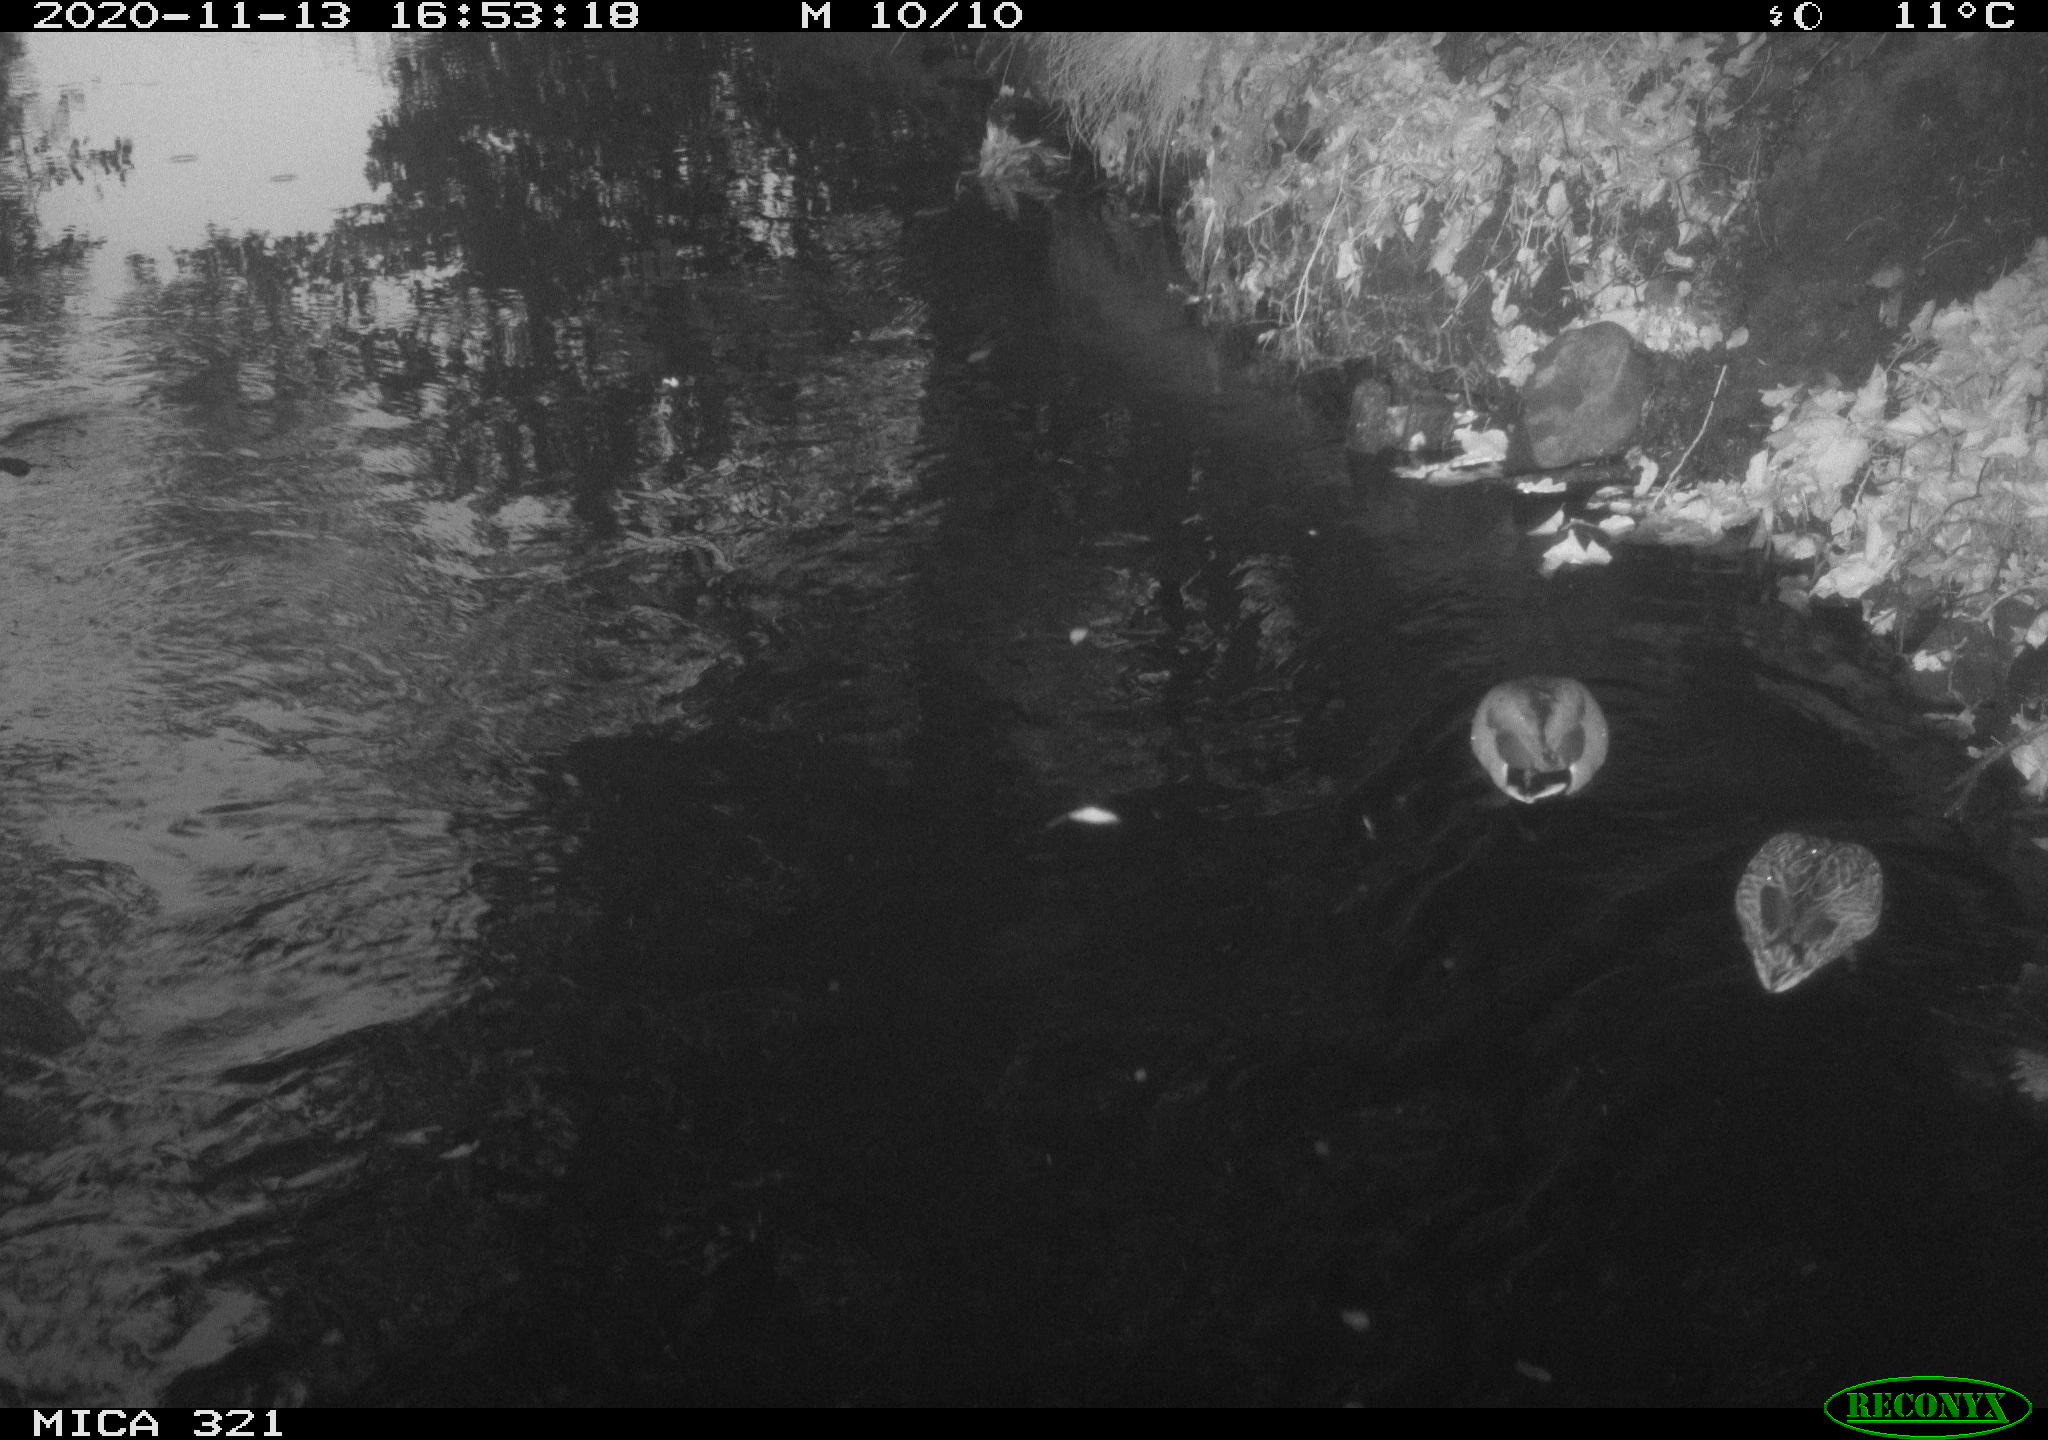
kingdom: Animalia
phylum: Chordata
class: Aves
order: Anseriformes
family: Anatidae
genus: Anas
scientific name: Anas platyrhynchos
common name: Mallard
